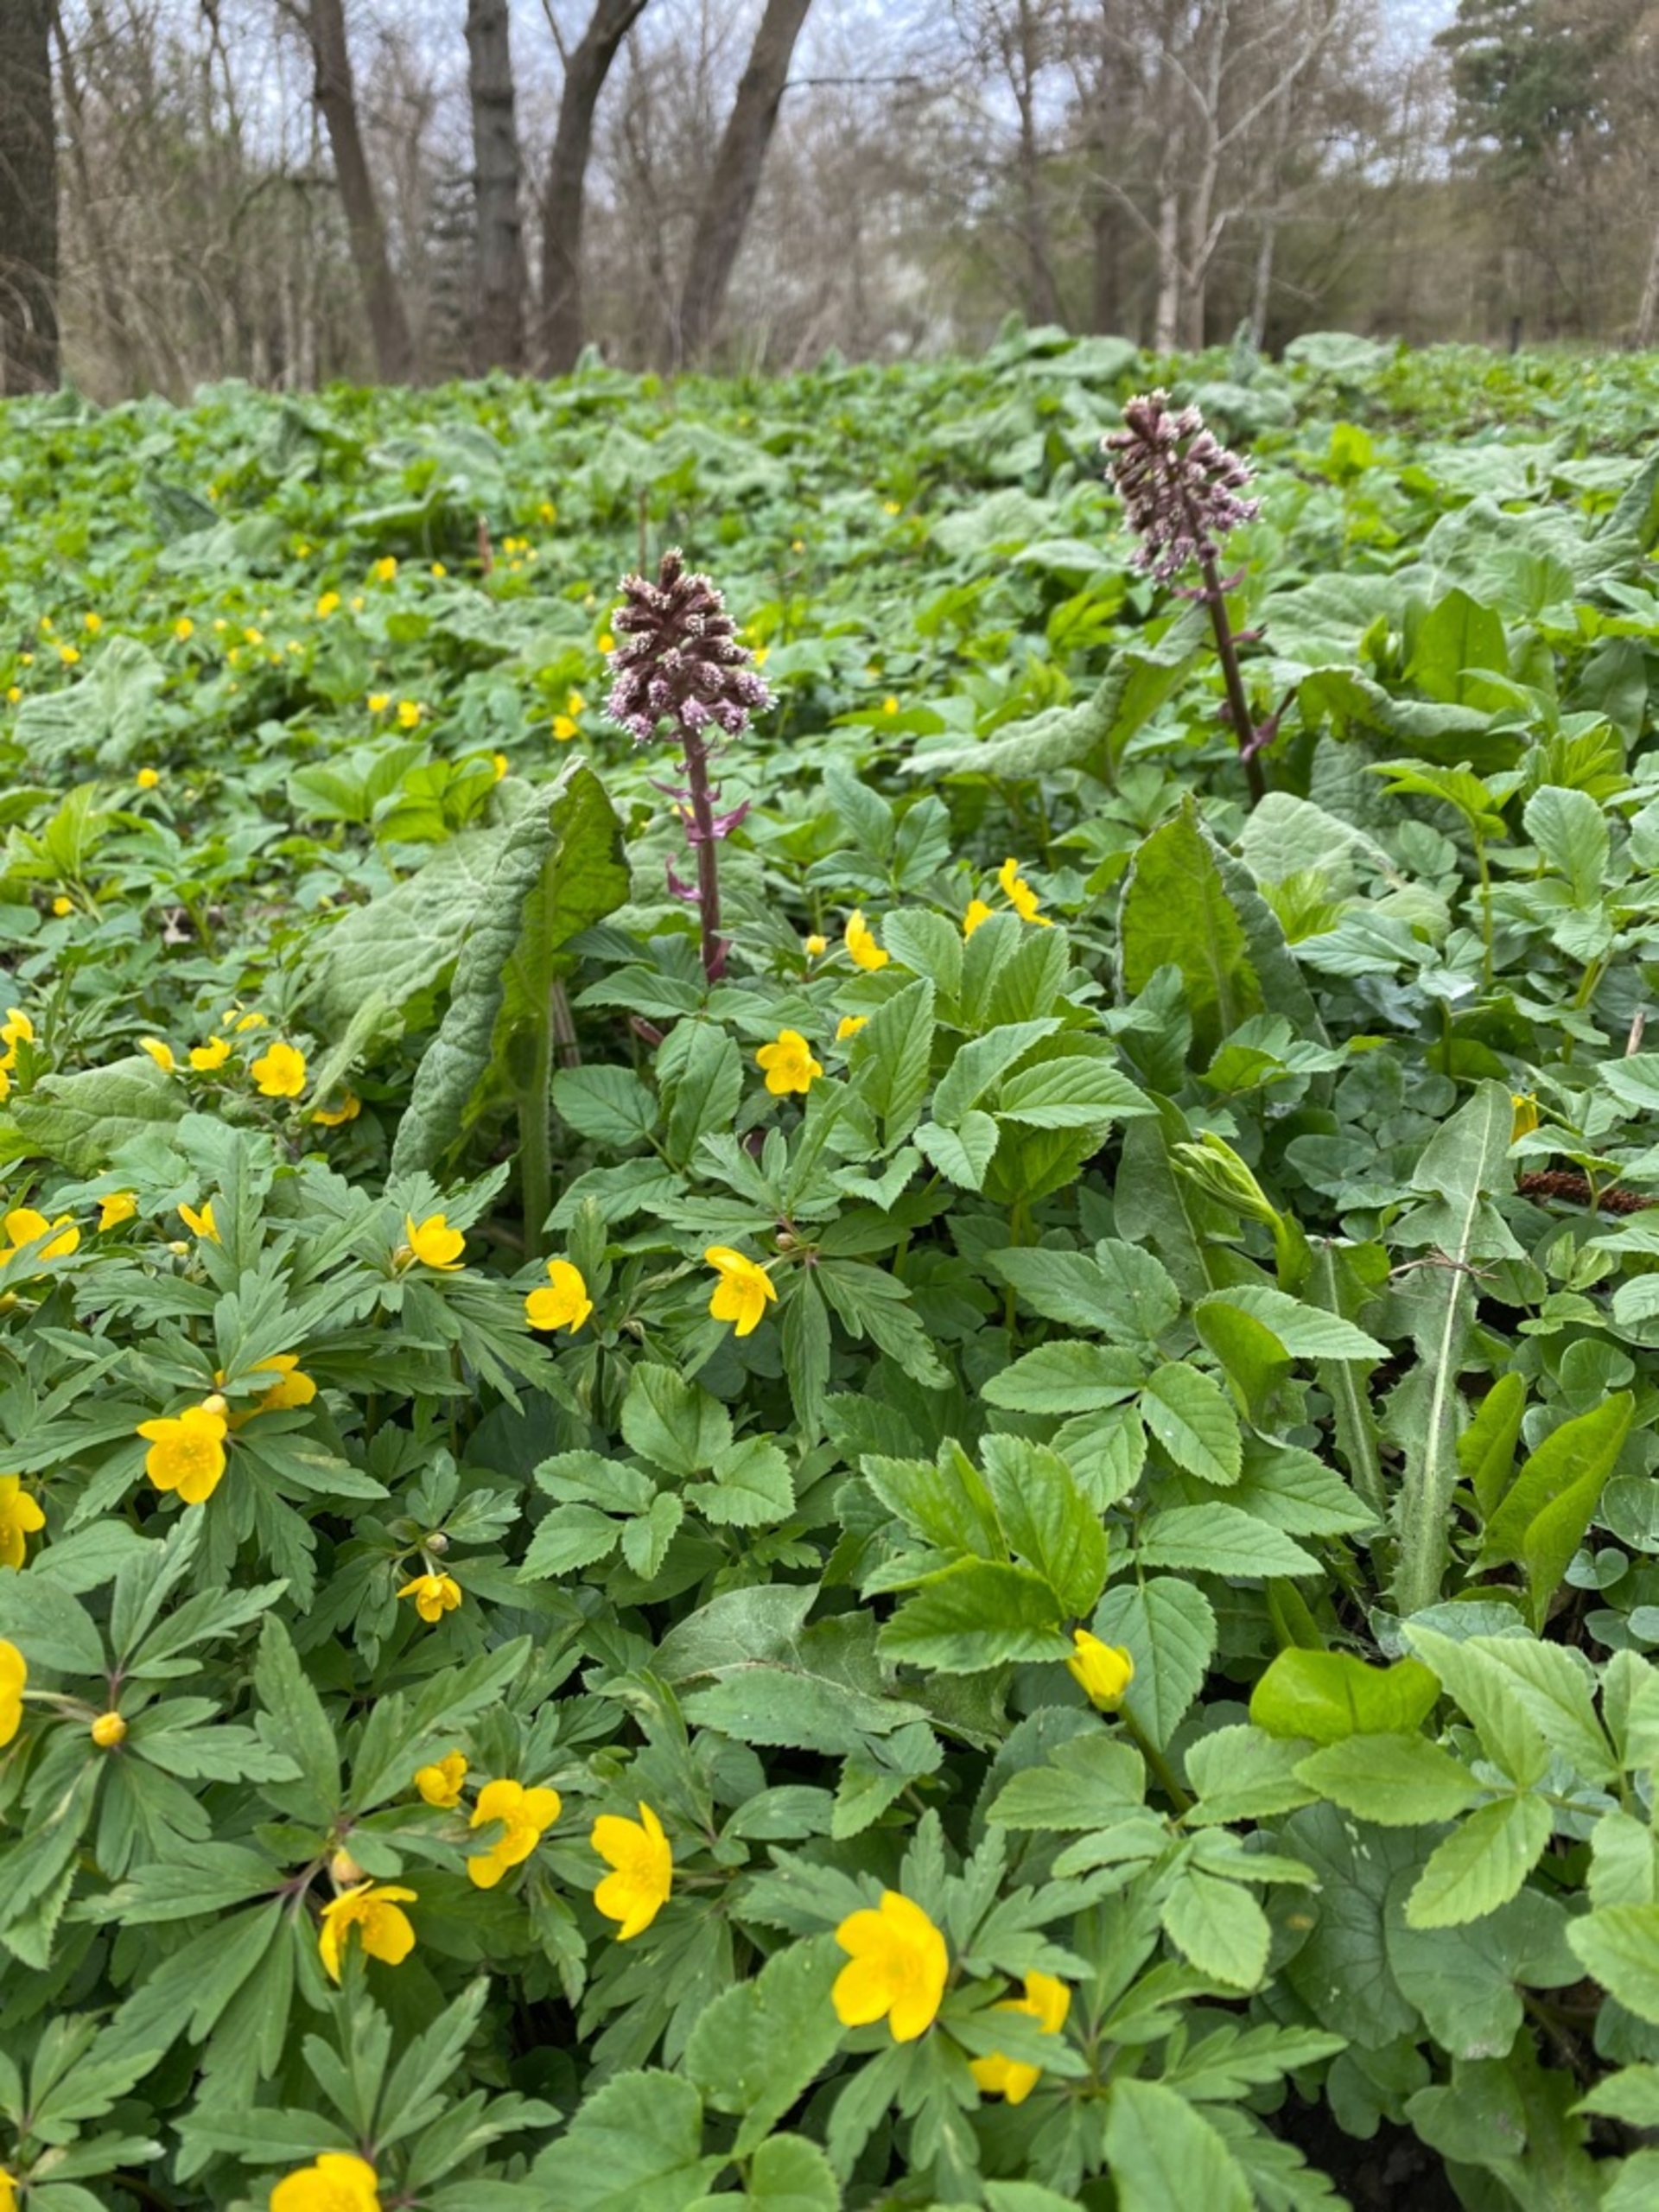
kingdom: Plantae
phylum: Tracheophyta
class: Magnoliopsida
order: Ranunculales
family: Ranunculaceae
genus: Anemone
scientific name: Anemone ranunculoides
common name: Gul anemone
